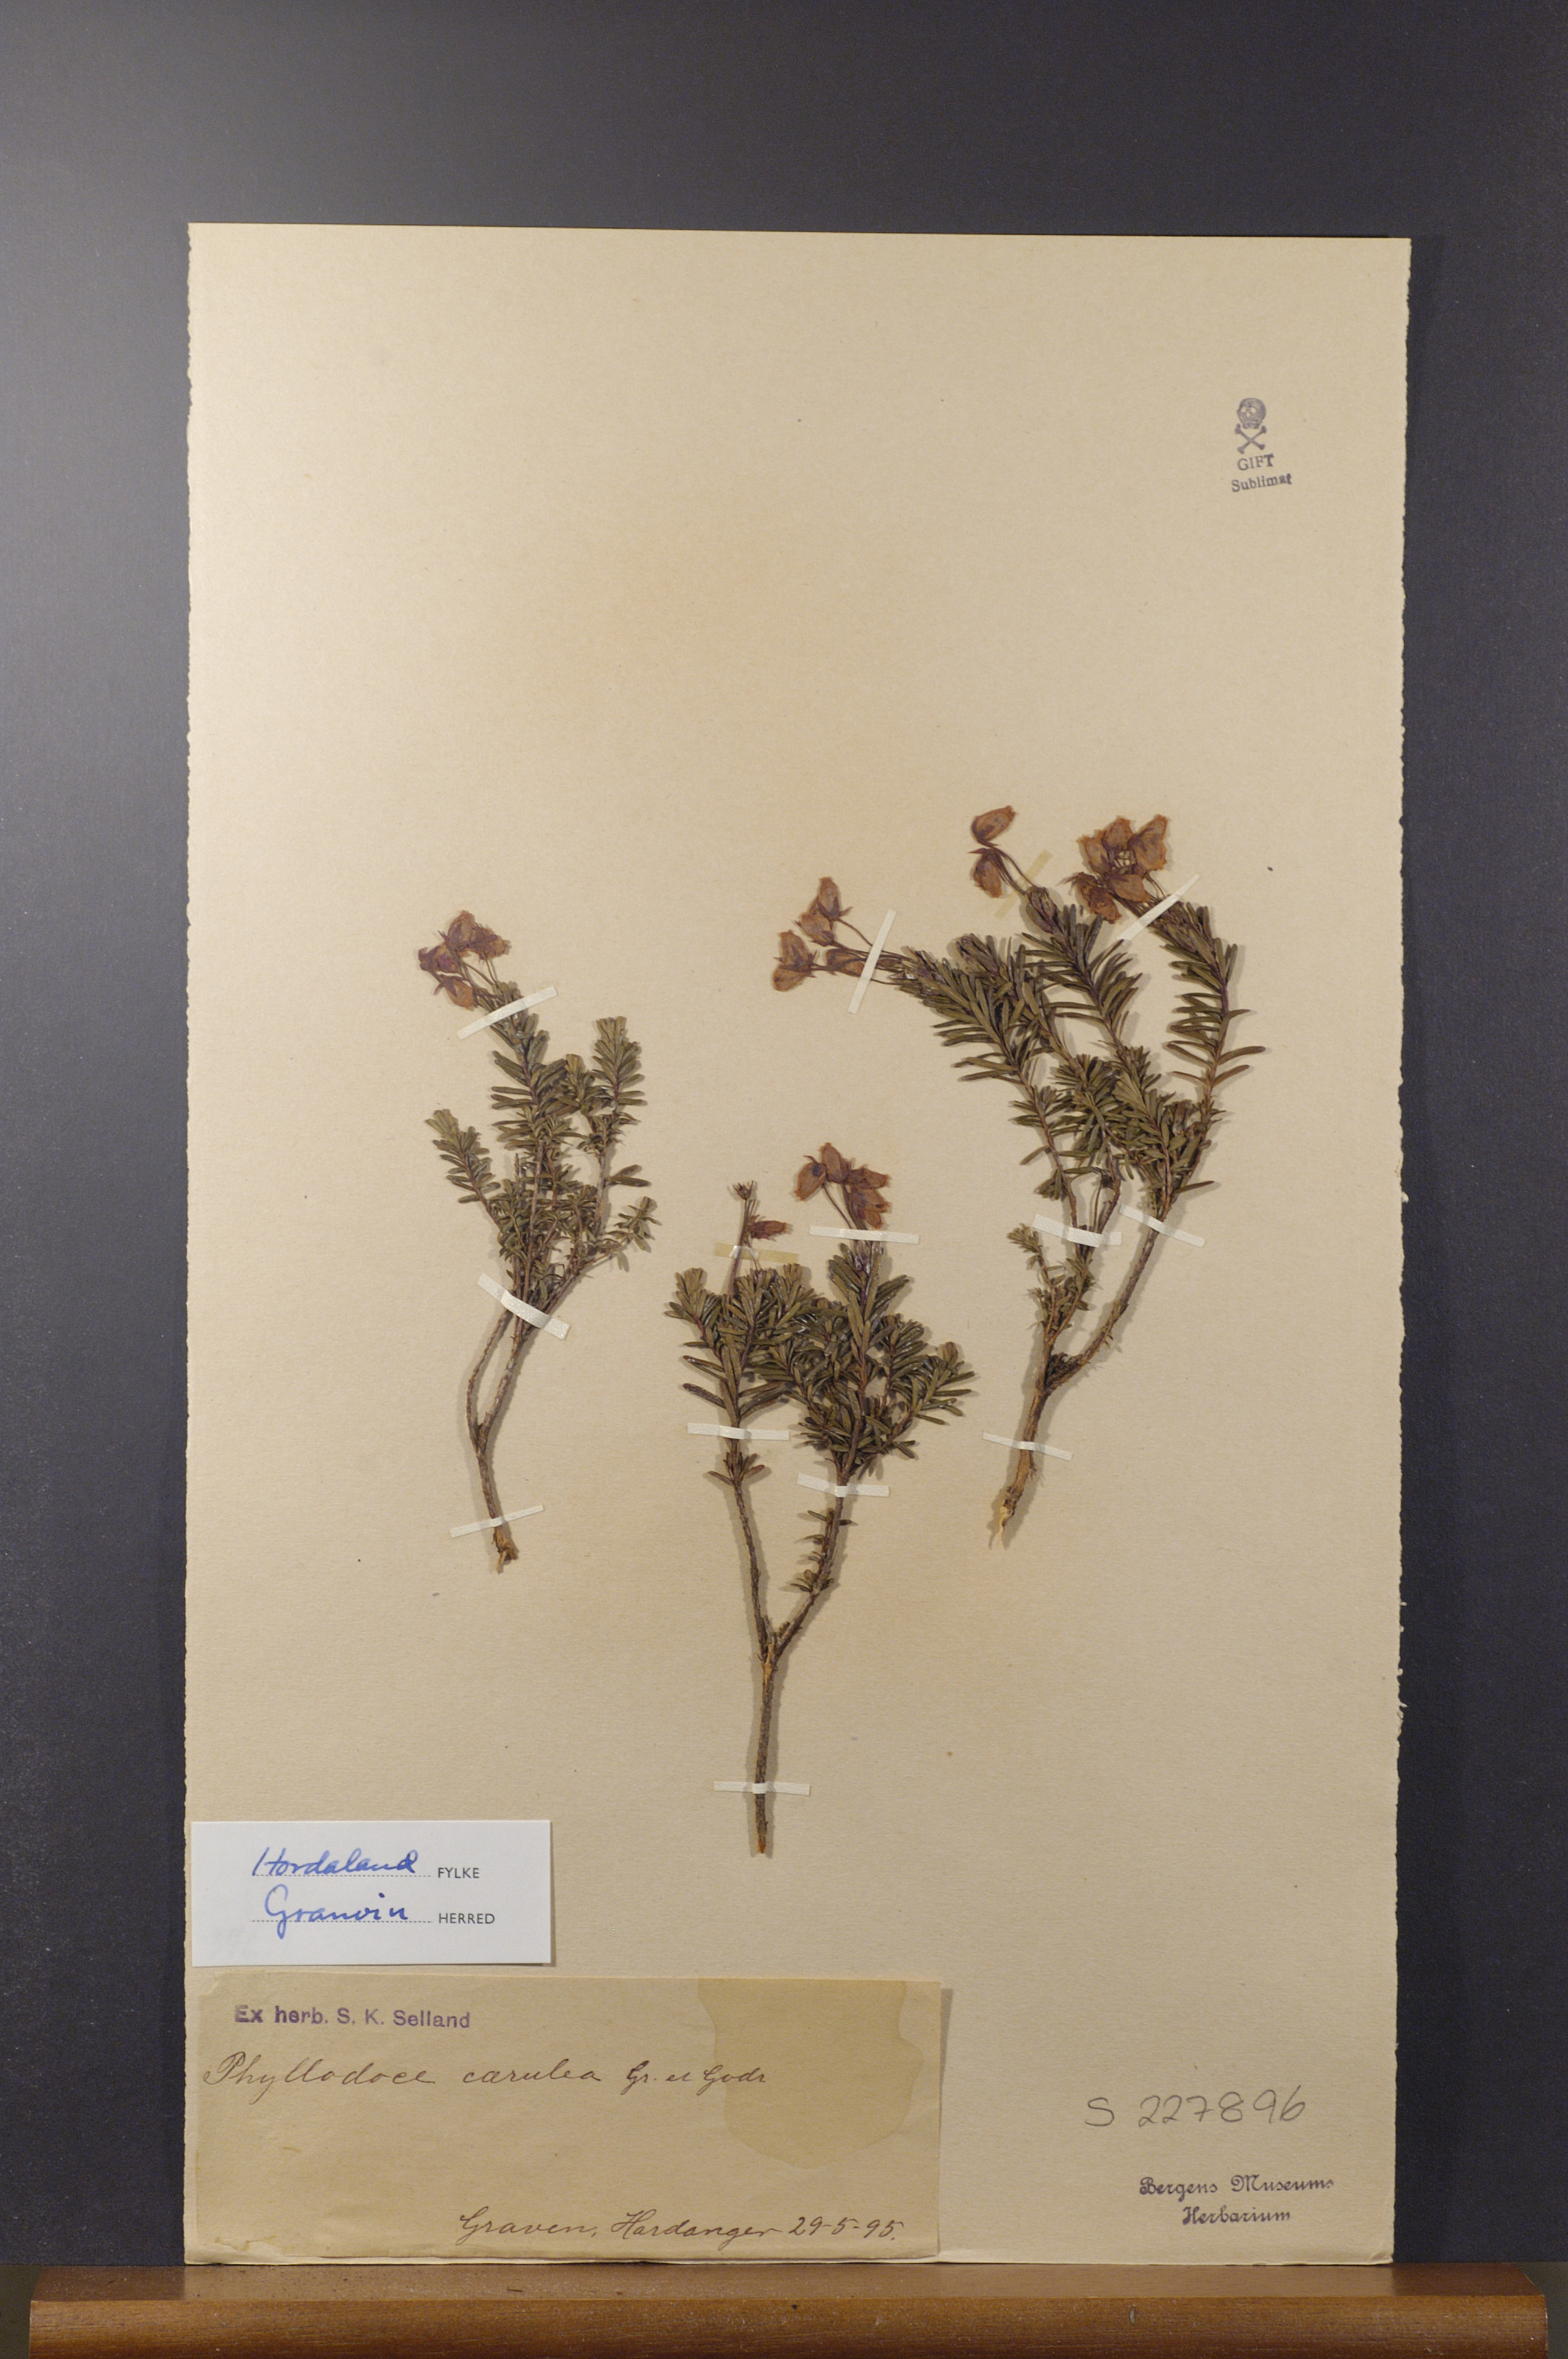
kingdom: Plantae
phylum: Tracheophyta
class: Magnoliopsida
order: Ericales
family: Ericaceae
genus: Phyllodoce
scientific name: Phyllodoce caerulea
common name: Blue heath
